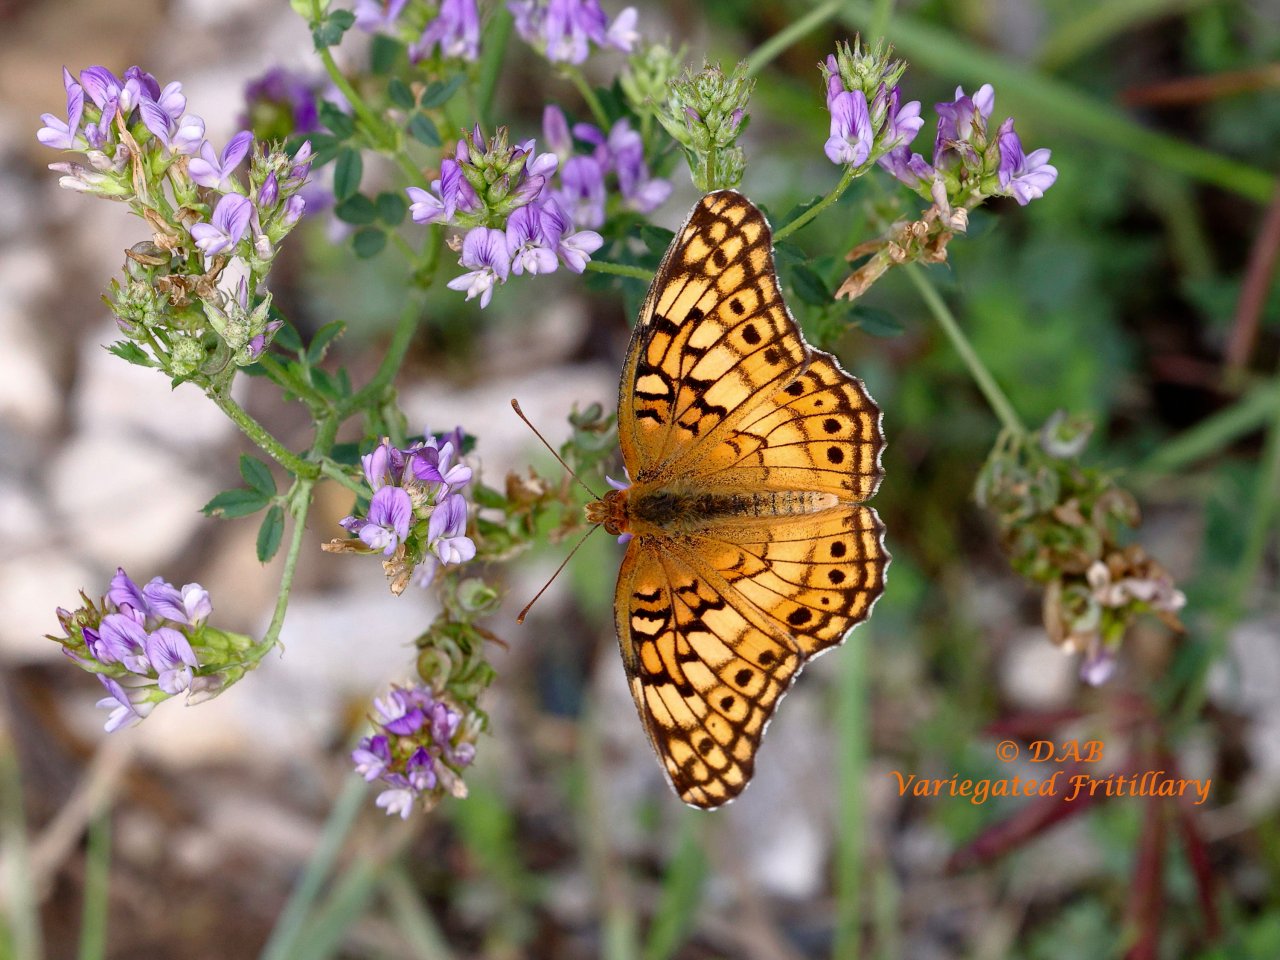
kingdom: Animalia
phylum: Arthropoda
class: Insecta
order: Lepidoptera
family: Nymphalidae
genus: Euptoieta
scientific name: Euptoieta claudia
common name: Variegated Fritillary
